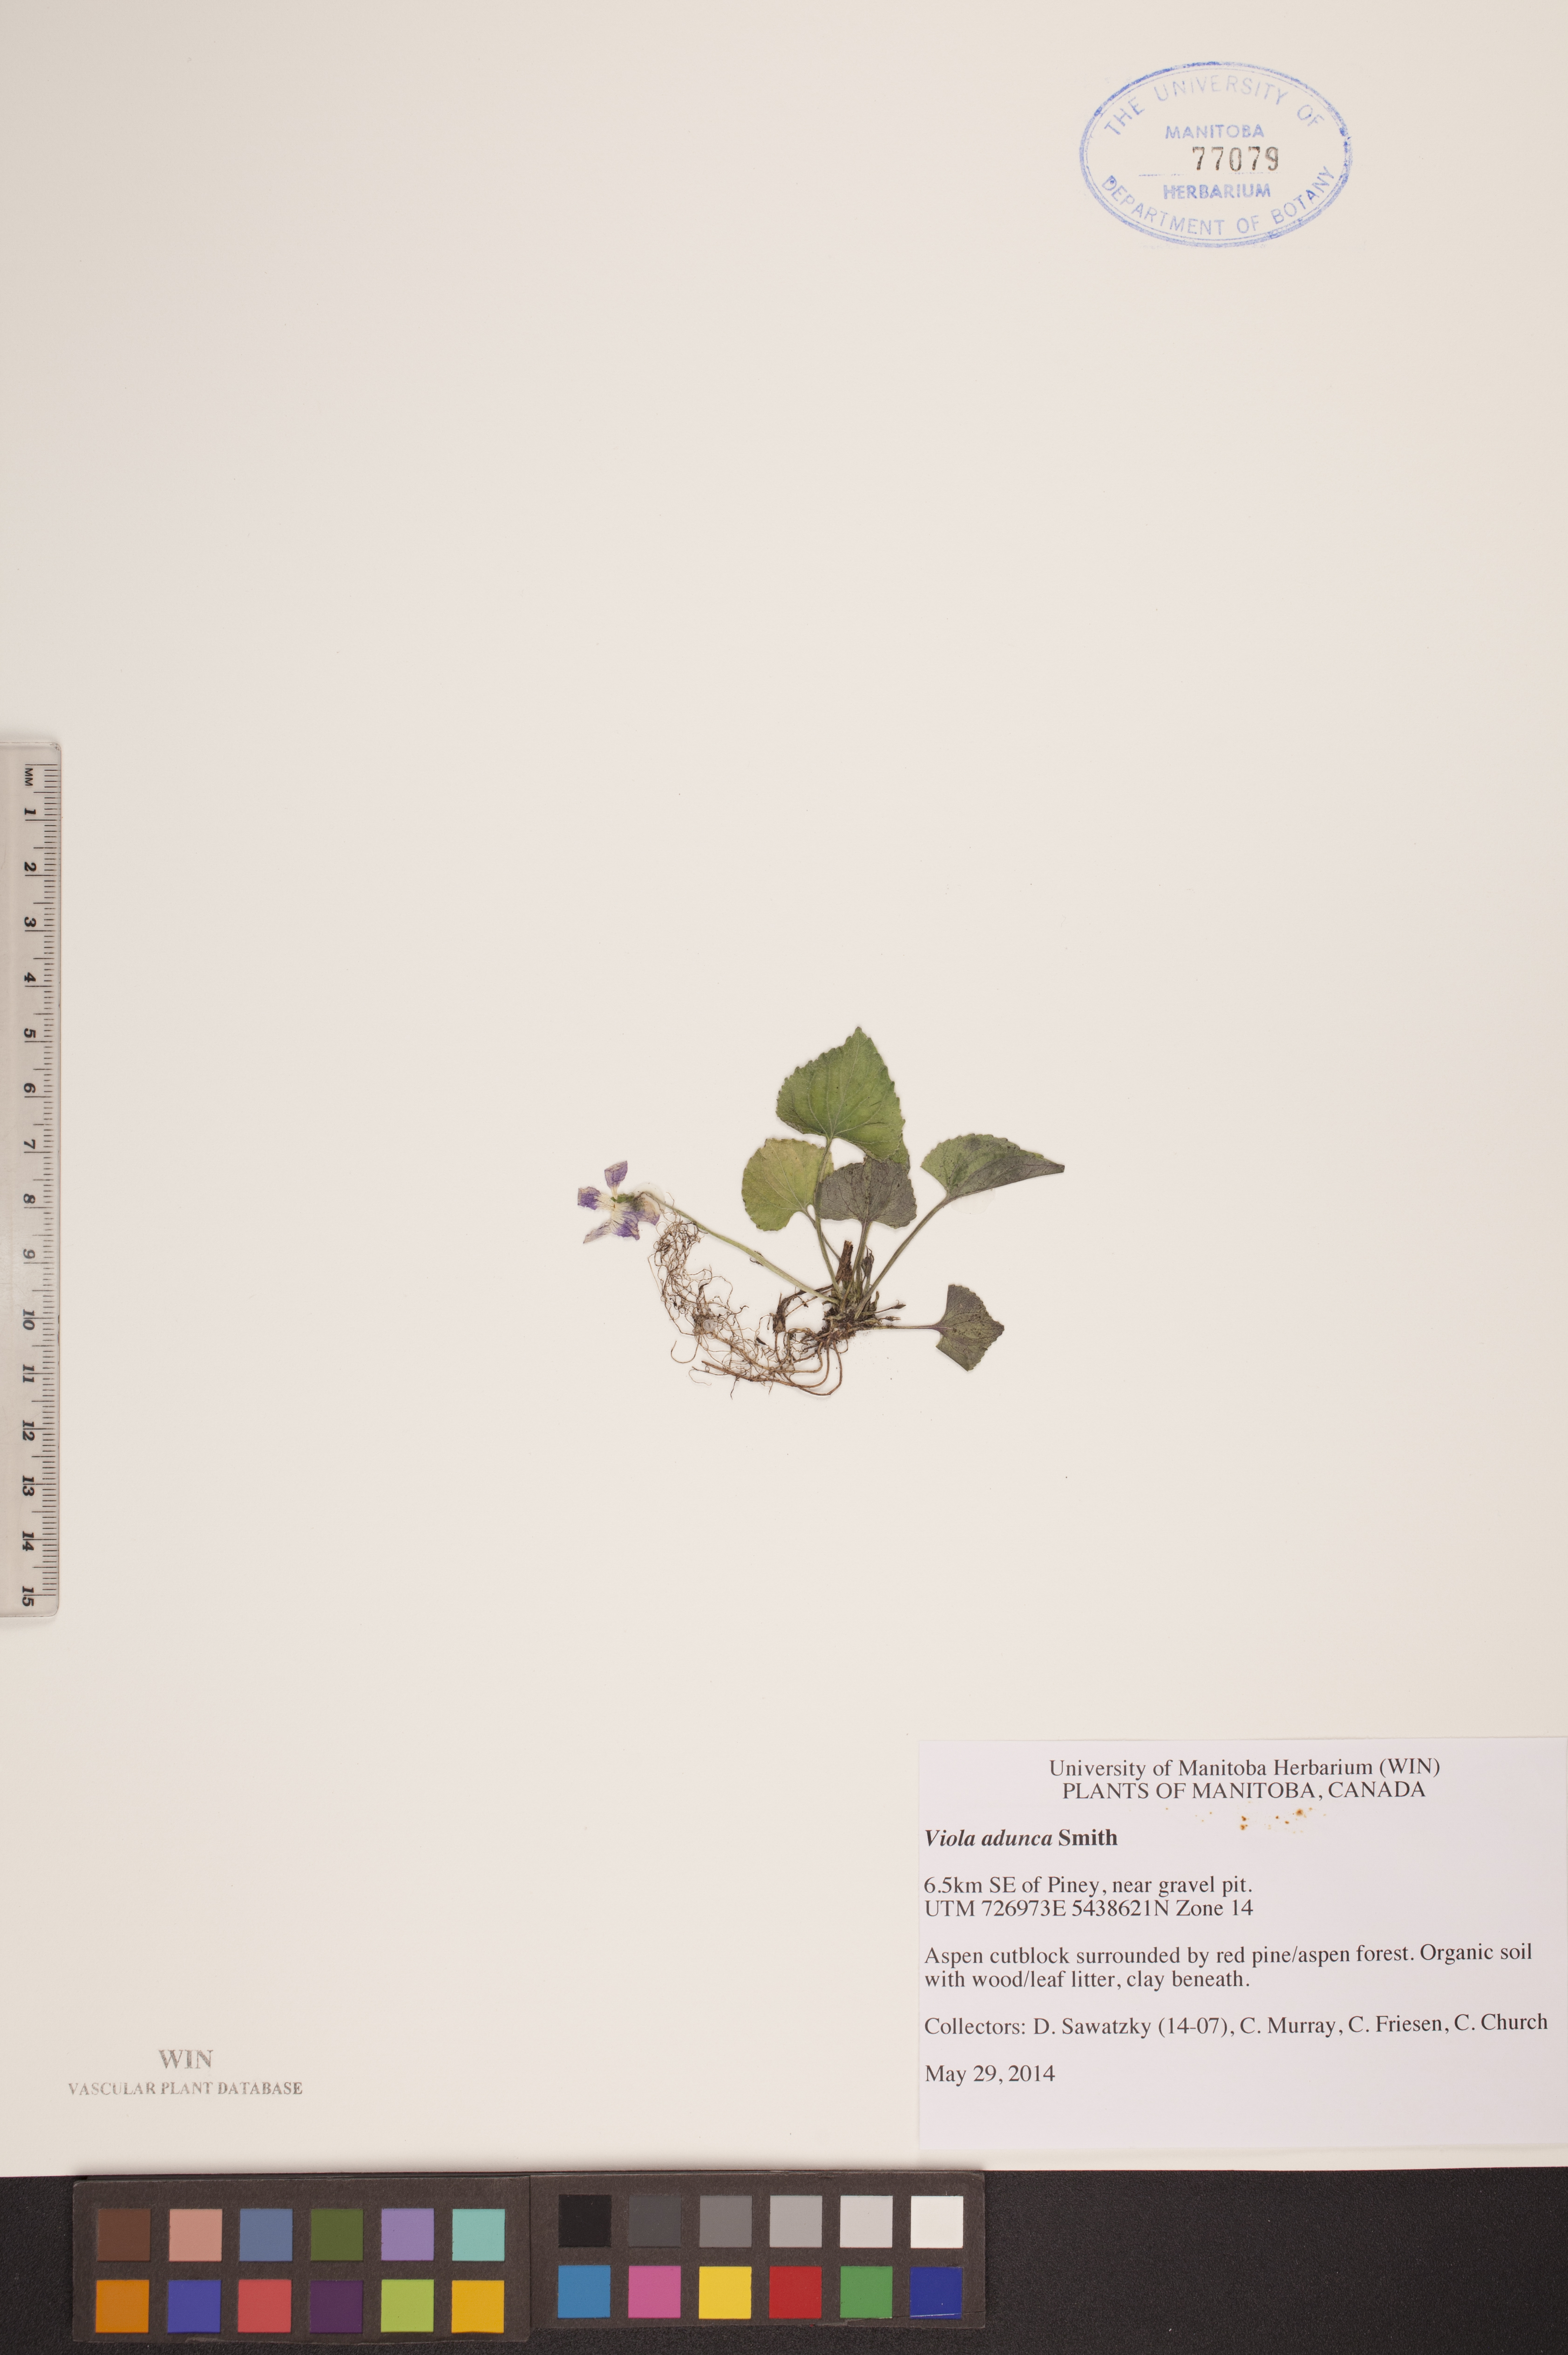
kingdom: Plantae
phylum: Tracheophyta
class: Magnoliopsida
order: Malpighiales
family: Violaceae
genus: Viola
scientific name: Viola adunca
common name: Sand violet
